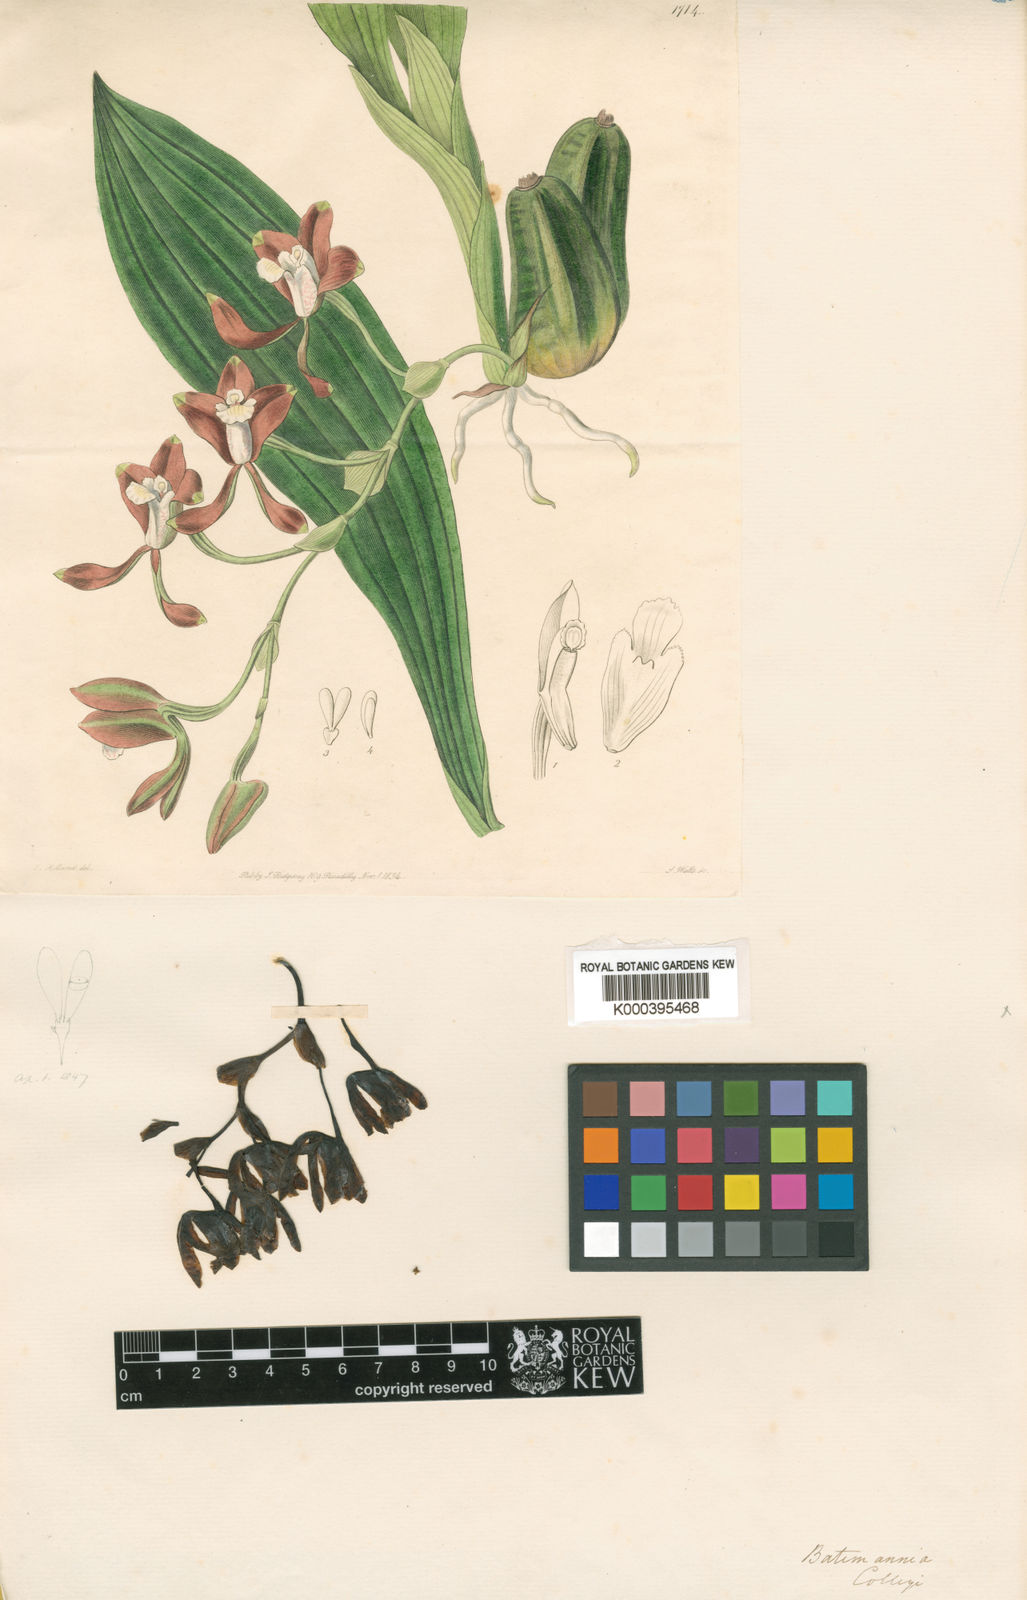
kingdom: Plantae
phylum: Tracheophyta
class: Liliopsida
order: Asparagales
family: Orchidaceae
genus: Batemannia
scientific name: Batemannia colleyi
